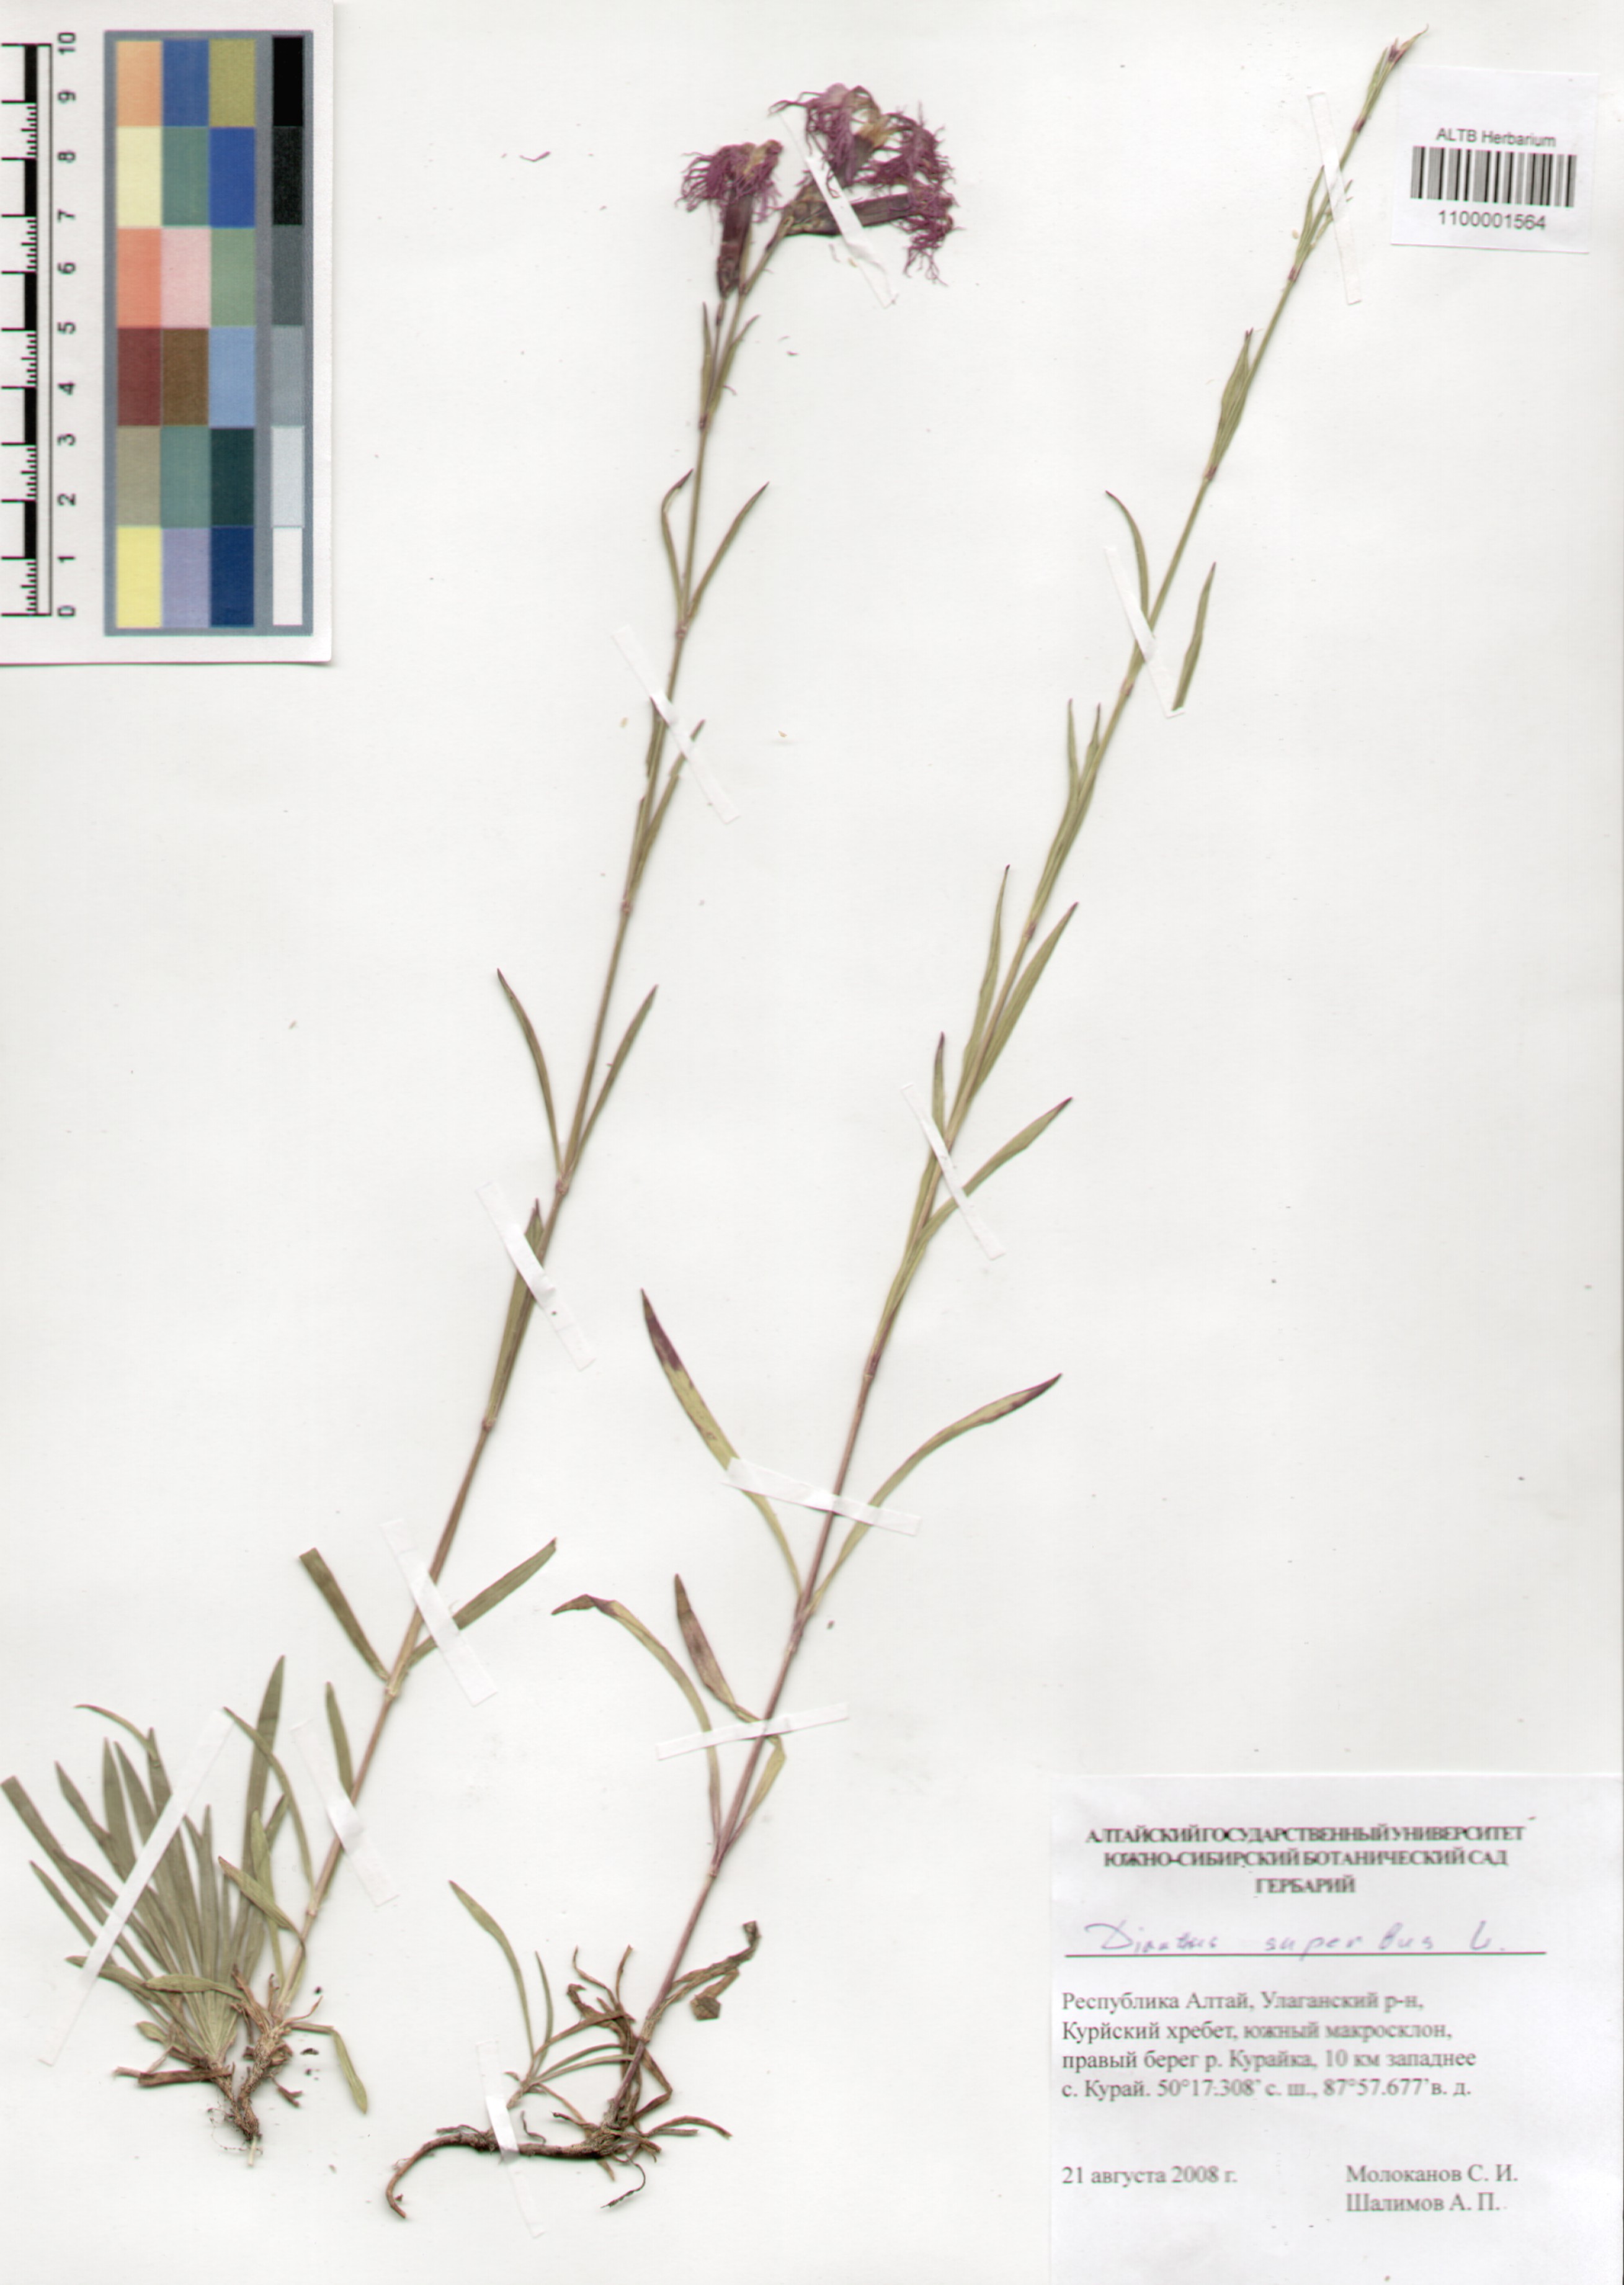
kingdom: Plantae
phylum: Tracheophyta
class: Magnoliopsida
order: Caryophyllales
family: Caryophyllaceae
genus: Dianthus
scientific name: Dianthus superbus
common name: Fringed pink
